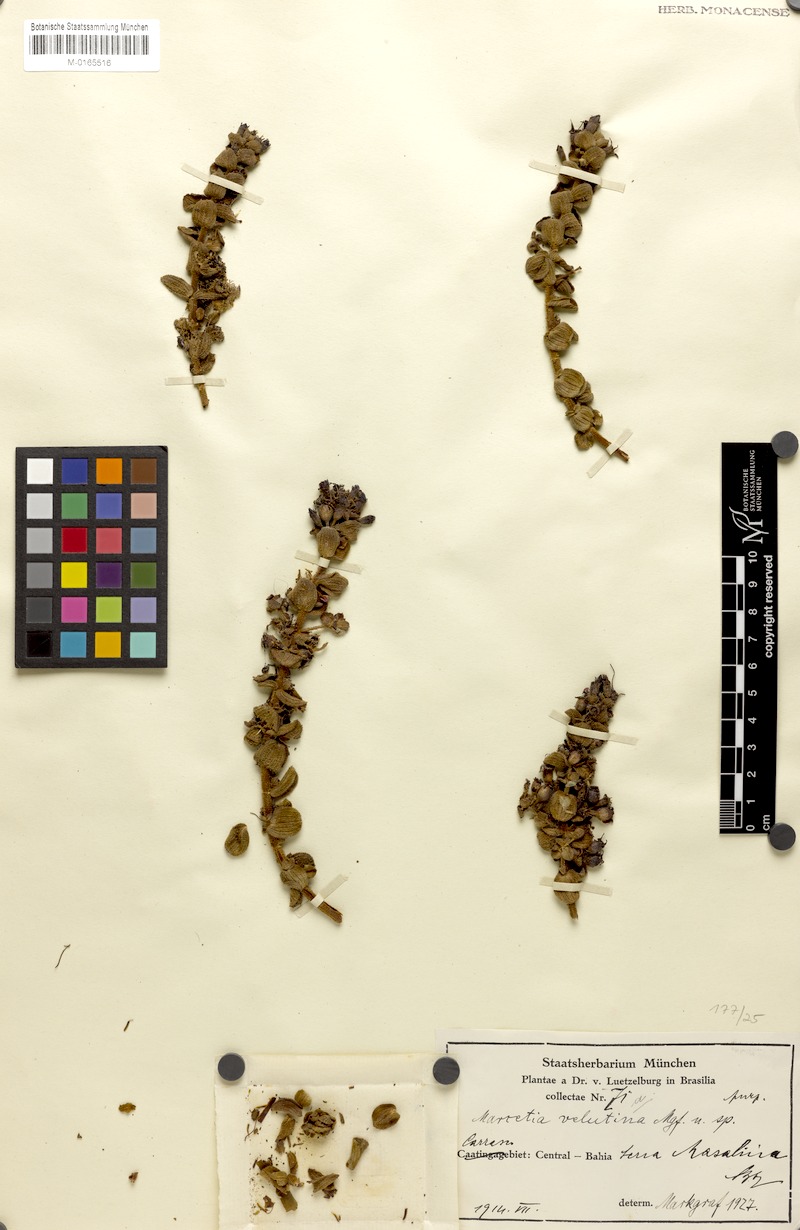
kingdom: Plantae
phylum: Tracheophyta
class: Magnoliopsida
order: Myrtales
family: Melastomataceae
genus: Marcetia
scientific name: Marcetia velutina
